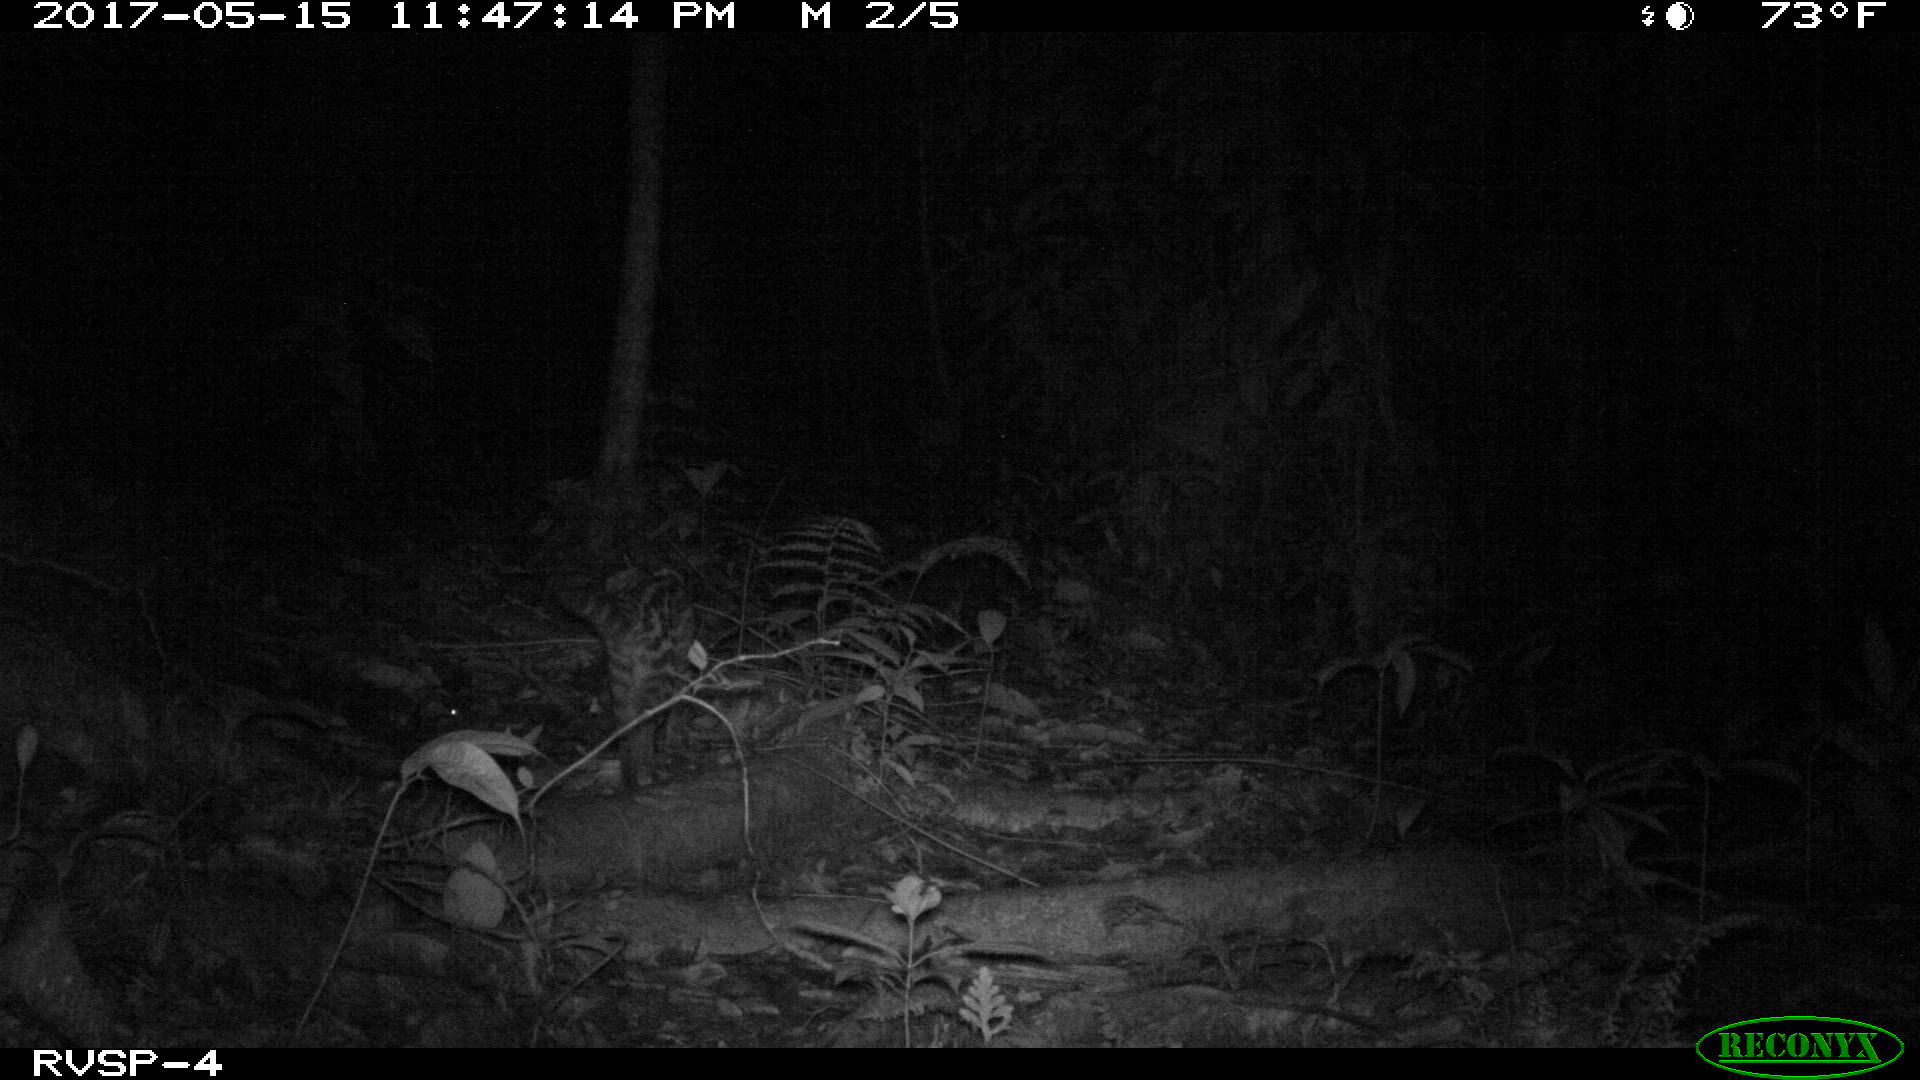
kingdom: Animalia
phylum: Chordata
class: Mammalia
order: Carnivora
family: Felidae
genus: Leopardus
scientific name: Leopardus pardalis
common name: Ocelot
